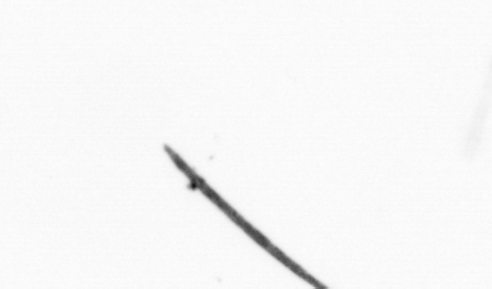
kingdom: Bacteria
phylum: Cyanobacteria
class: Cyanobacteriia
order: Cyanobacteriales
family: Microcoleaceae
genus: Trichodesmium
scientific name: Trichodesmium
